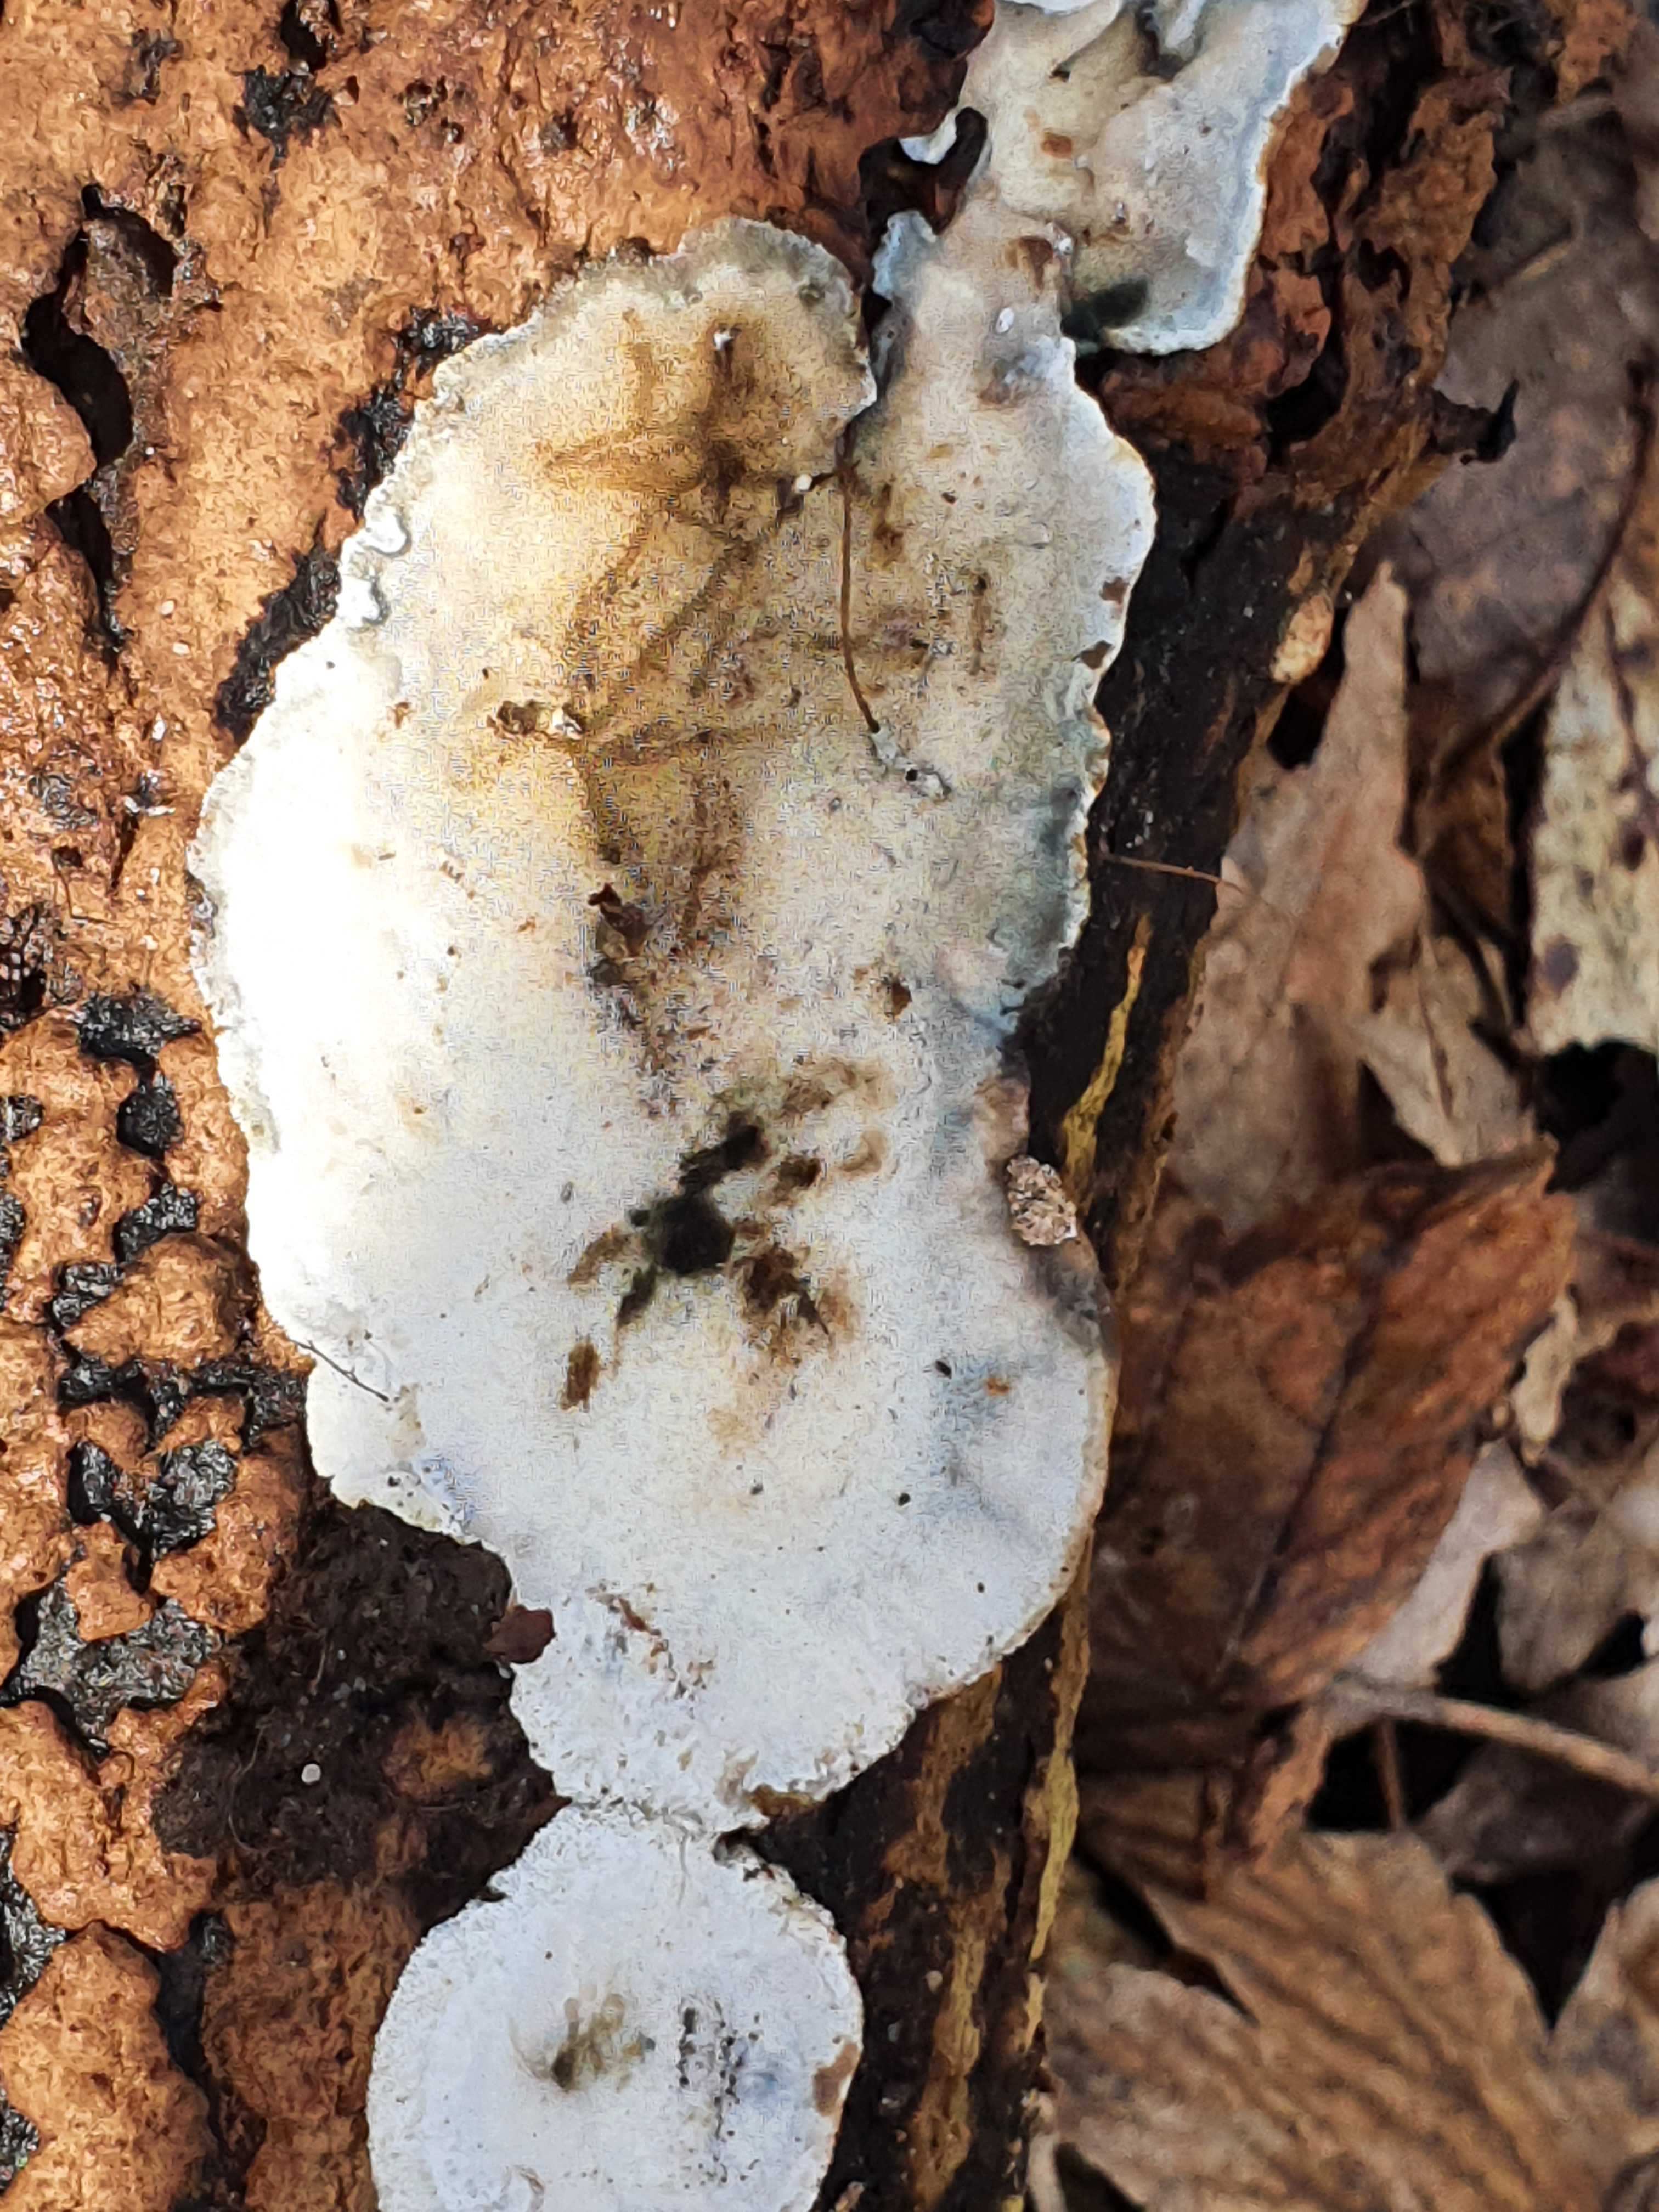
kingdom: Fungi
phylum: Basidiomycota
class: Agaricomycetes
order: Polyporales
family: Incrustoporiaceae
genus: Skeletocutis
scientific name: Skeletocutis nemoralis
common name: stor krystalporesvamp
